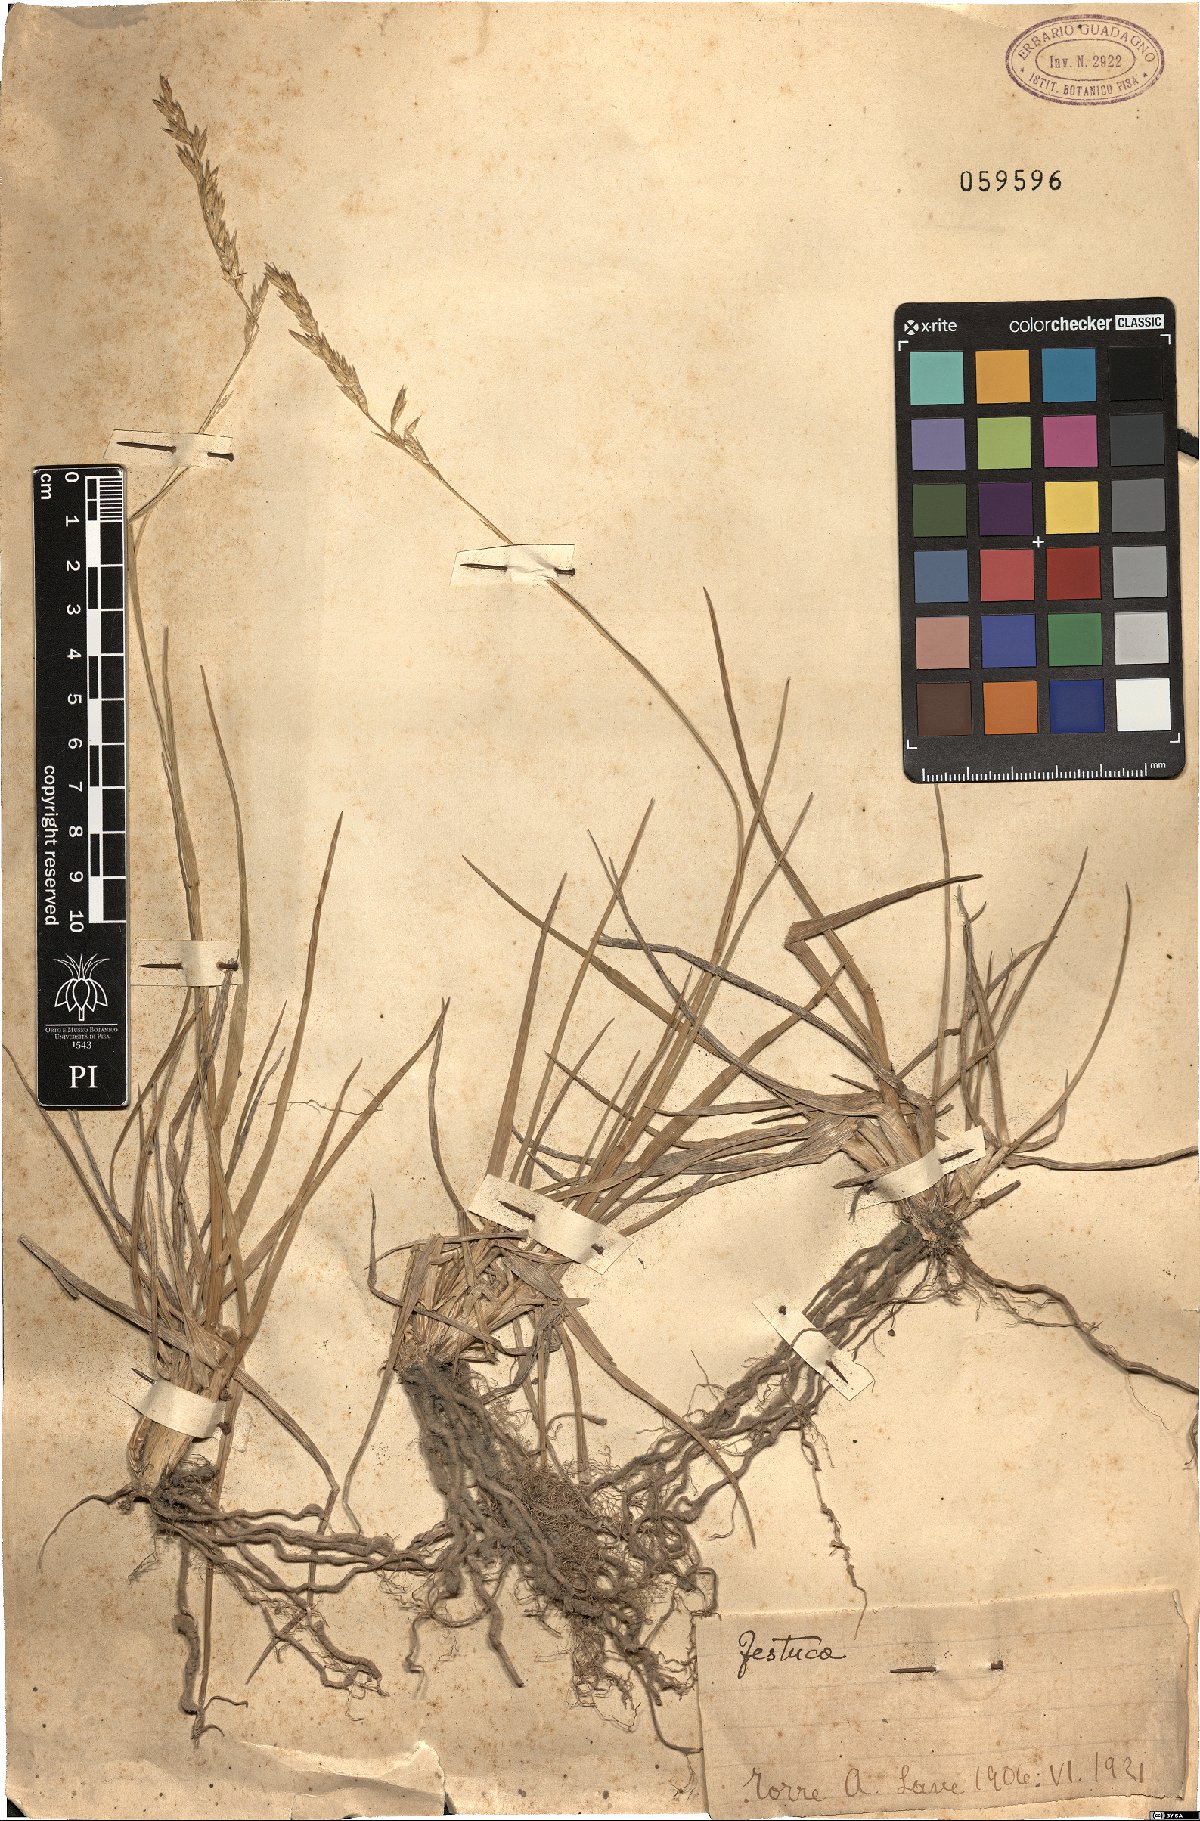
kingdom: Plantae
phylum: Tracheophyta
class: Liliopsida
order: Poales
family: Poaceae
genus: Festuca
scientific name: Festuca
